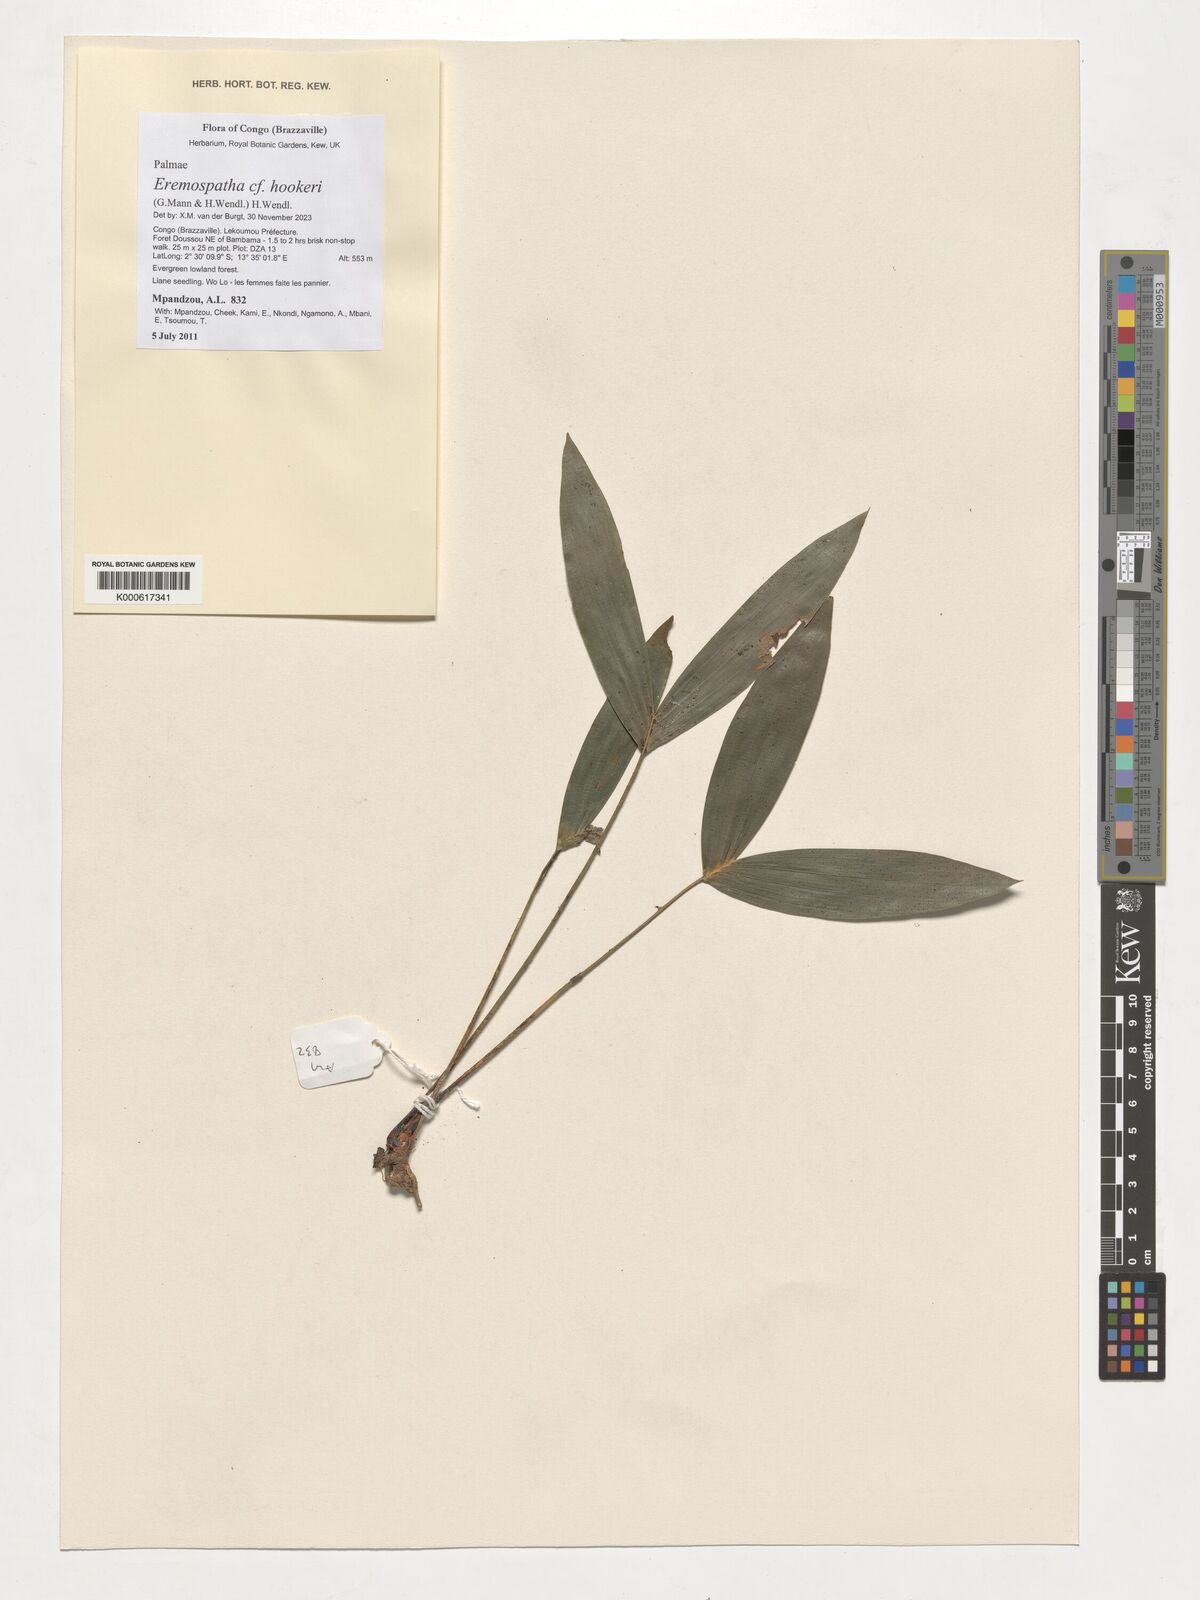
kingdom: Plantae
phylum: Tracheophyta
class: Liliopsida
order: Arecales
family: Arecaceae
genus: Eremospatha
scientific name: Eremospatha hookeri
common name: Rattan
